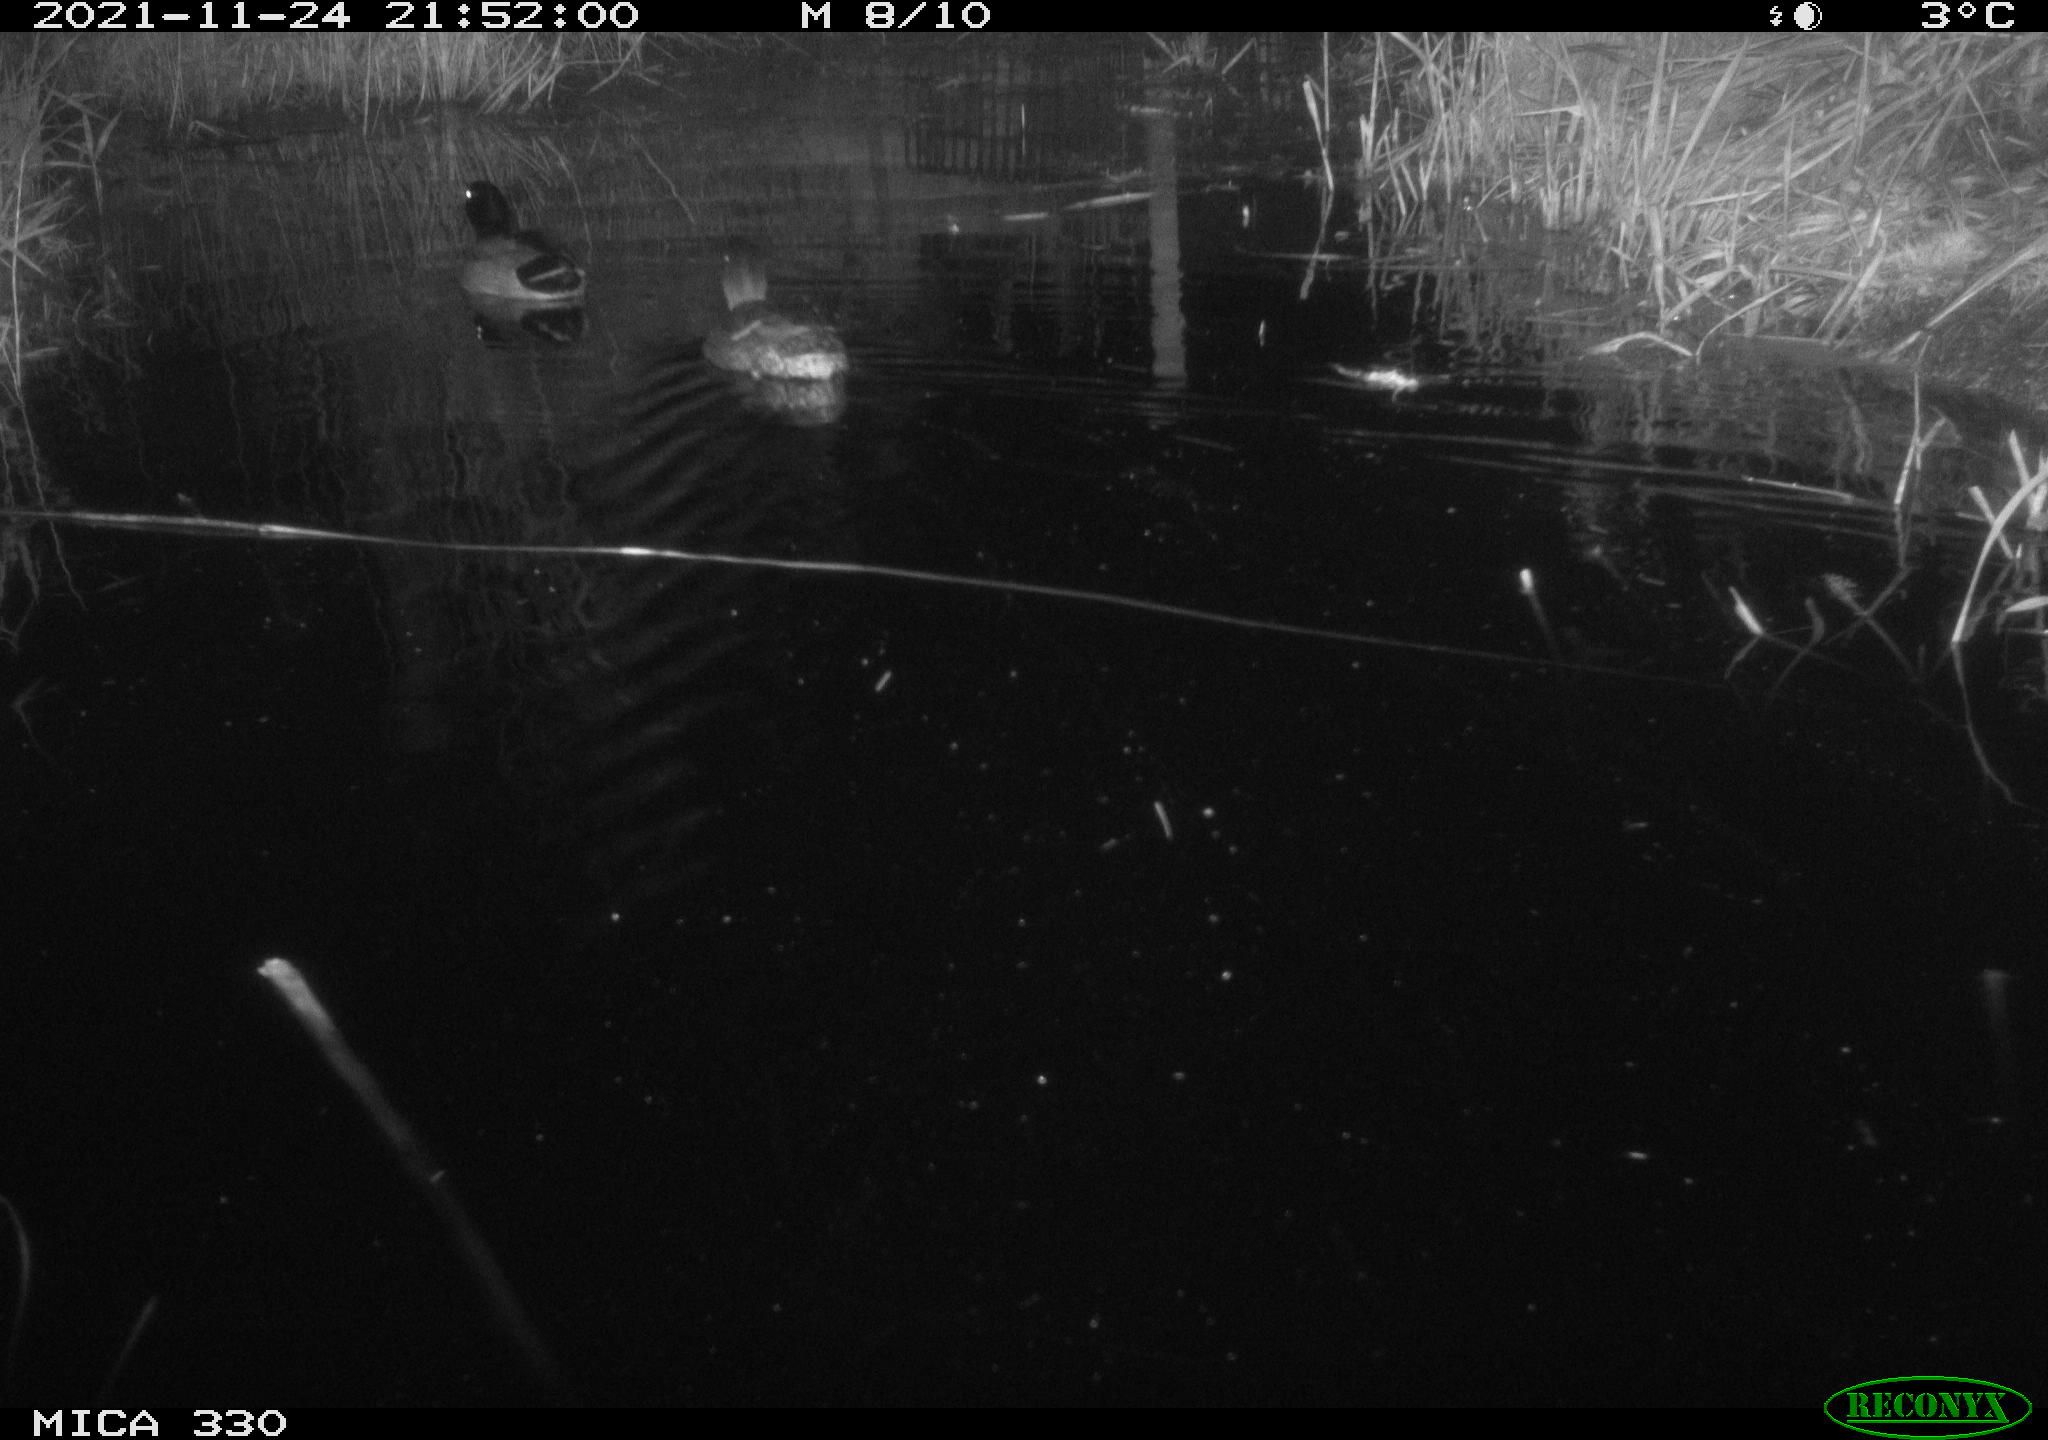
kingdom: Animalia
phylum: Chordata
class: Aves
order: Anseriformes
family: Anatidae
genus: Anas
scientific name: Anas platyrhynchos
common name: Mallard
